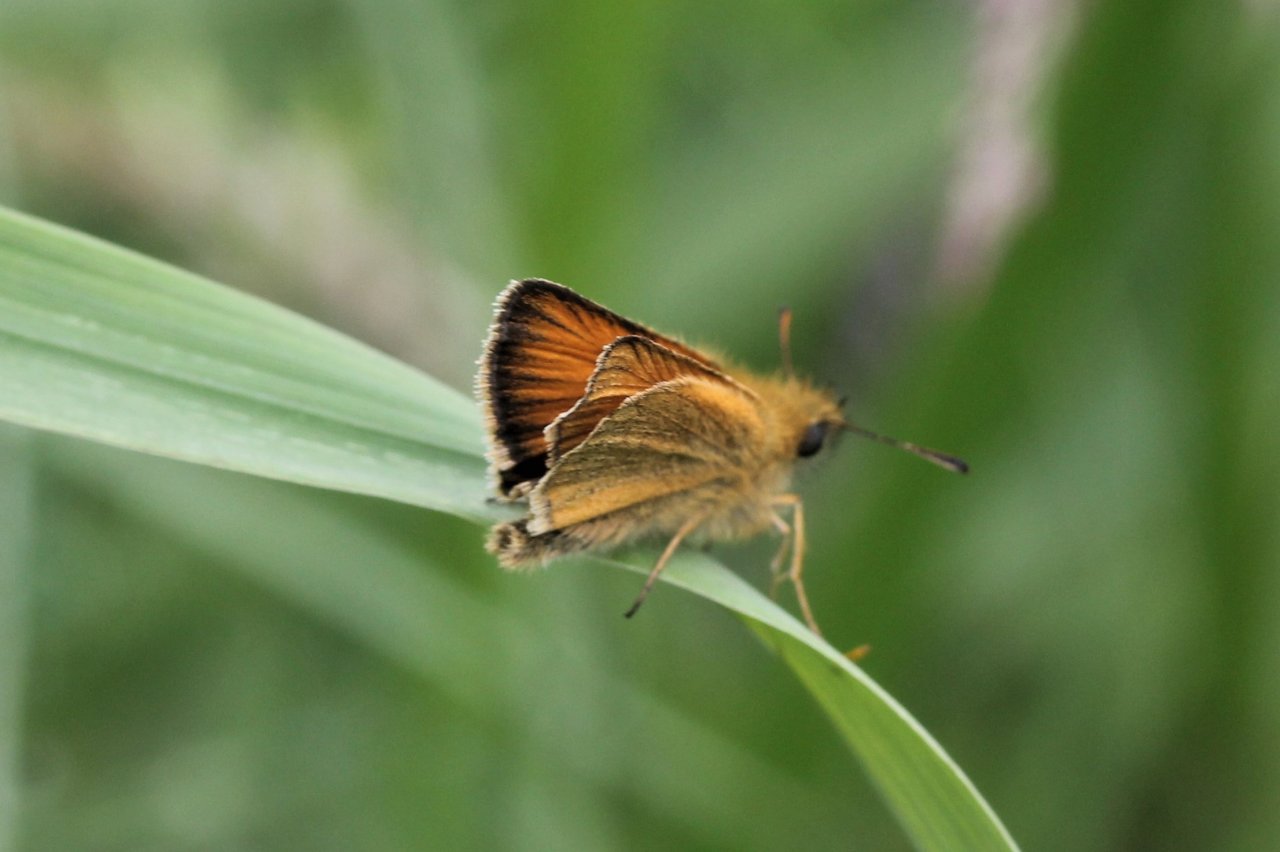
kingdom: Animalia
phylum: Arthropoda
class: Insecta
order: Lepidoptera
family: Hesperiidae
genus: Thymelicus
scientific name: Thymelicus lineola
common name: European Skipper
